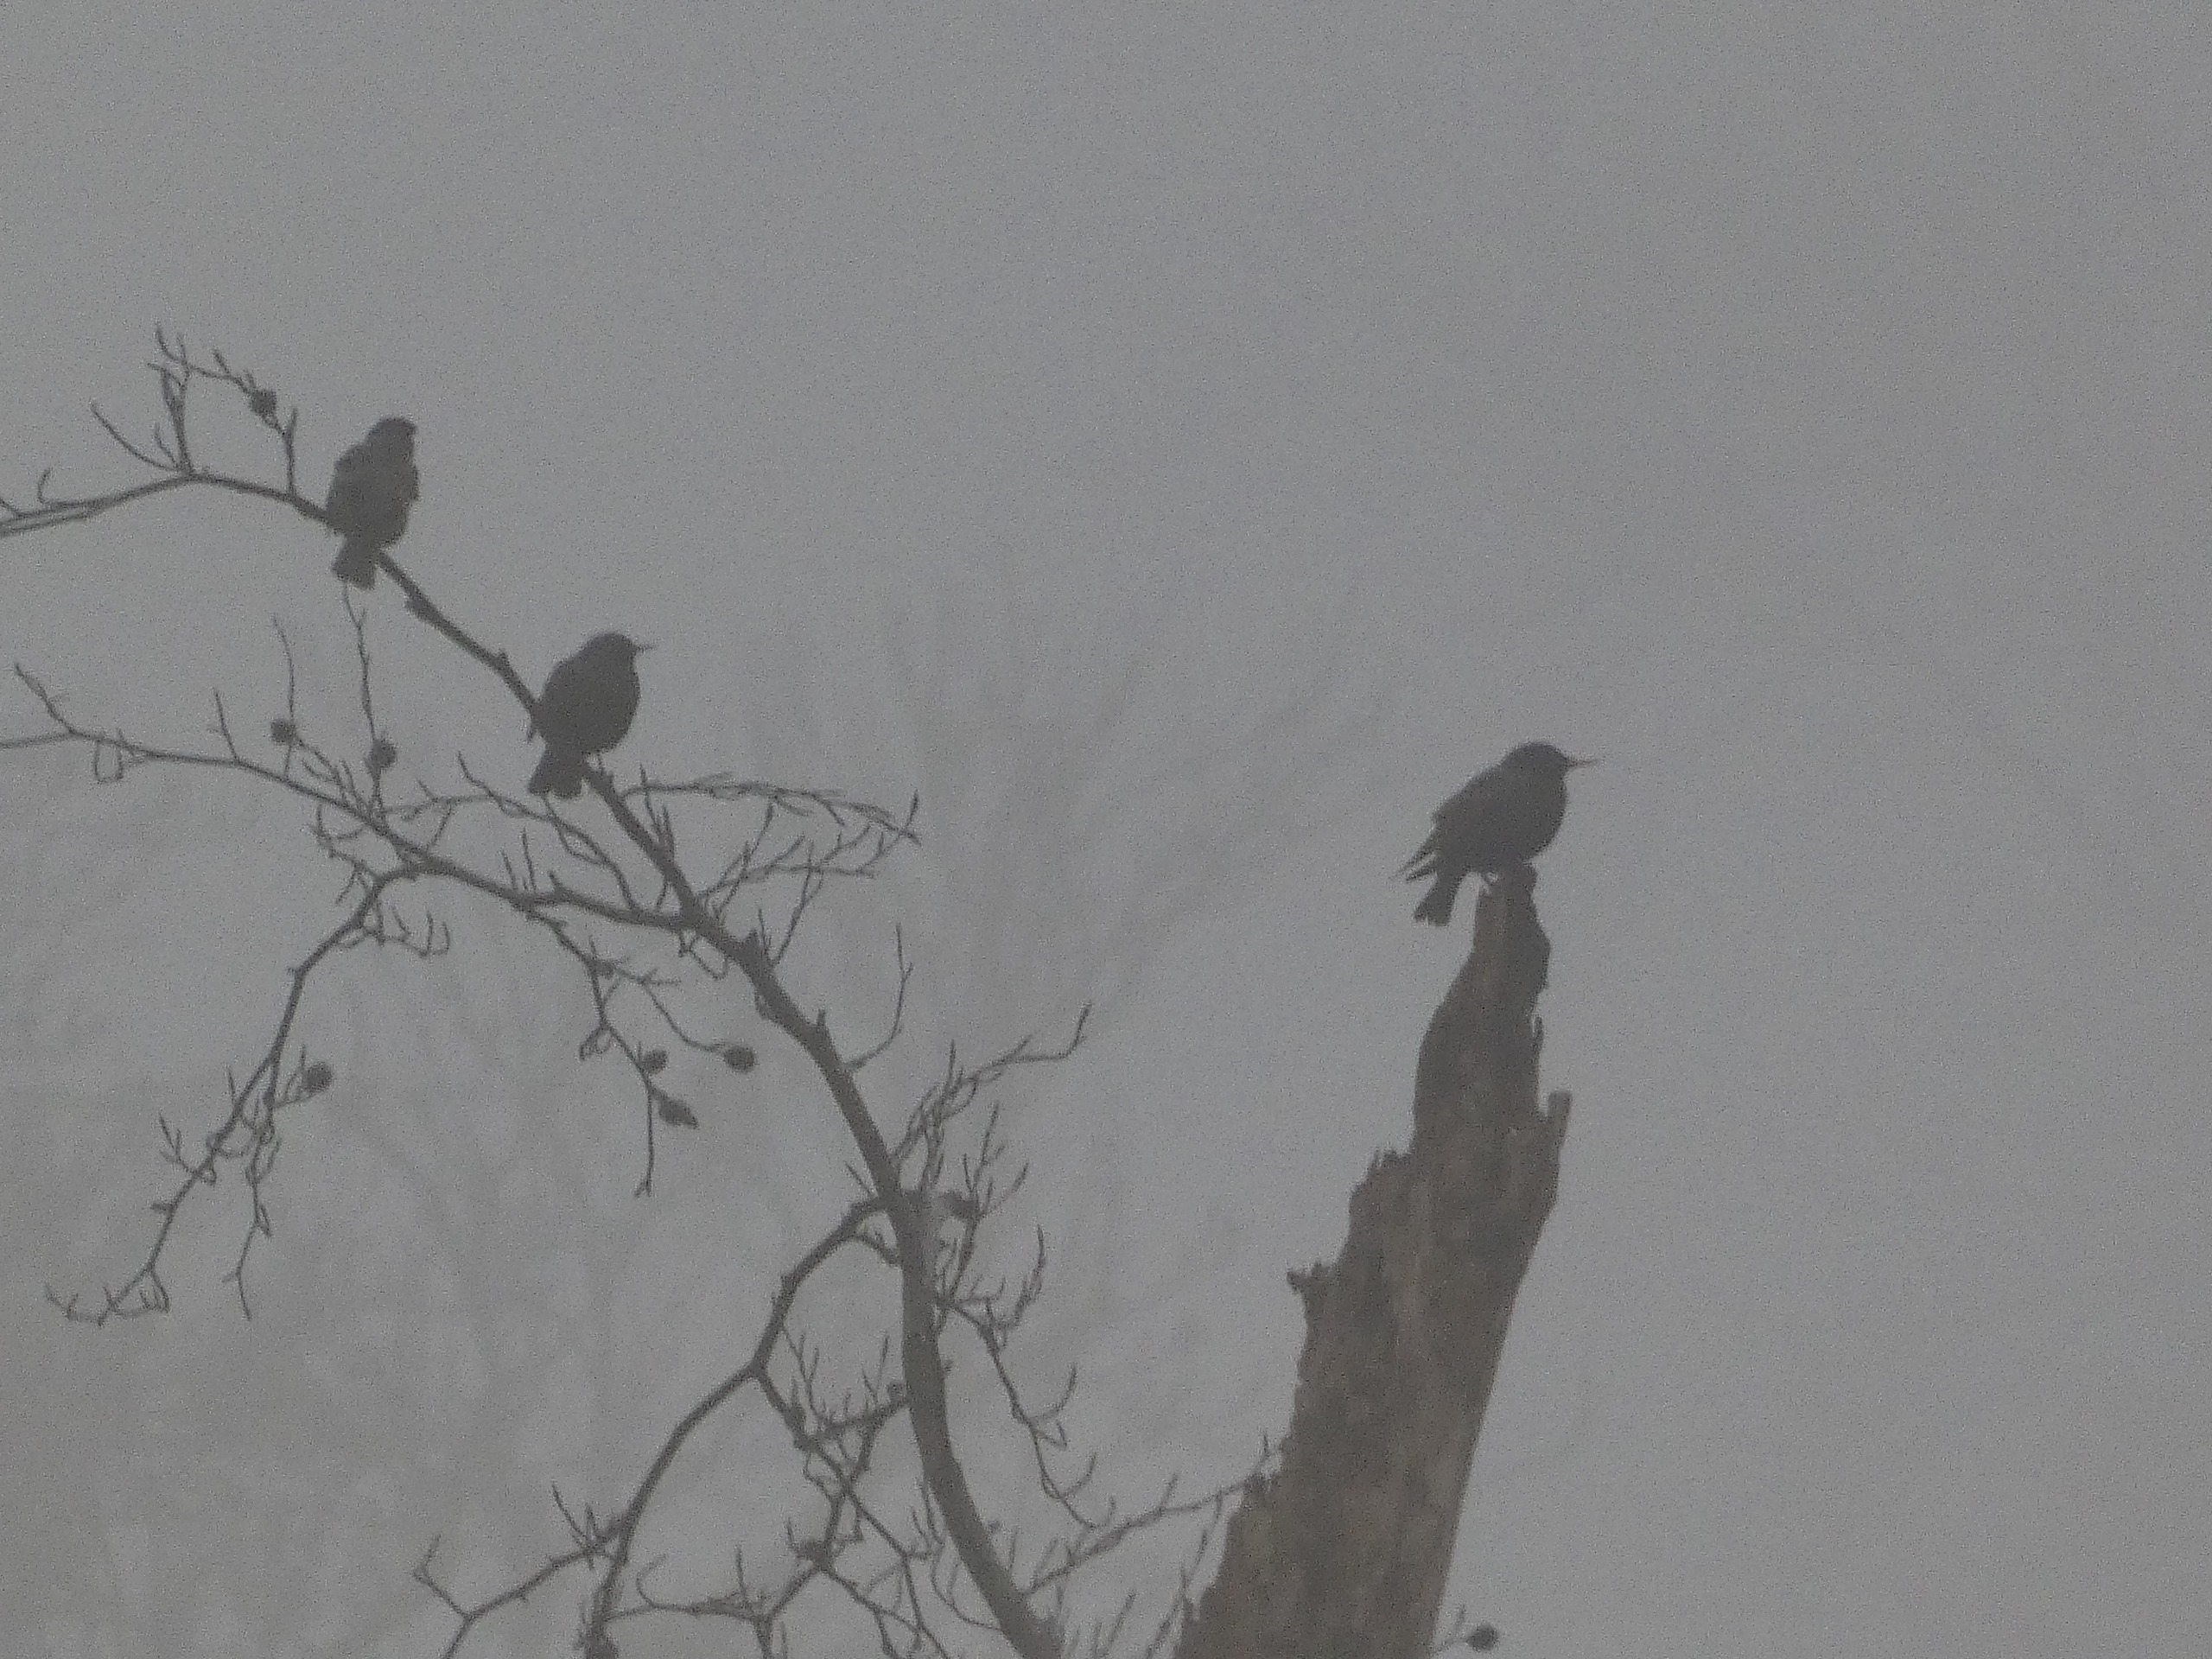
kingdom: Animalia
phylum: Chordata
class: Aves
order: Passeriformes
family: Sturnidae
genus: Sturnus
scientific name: Sturnus vulgaris
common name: Stær
